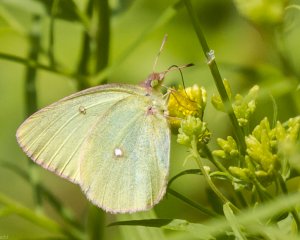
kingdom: Animalia
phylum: Arthropoda
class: Insecta
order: Lepidoptera
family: Pieridae
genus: Colias
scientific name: Colias interior
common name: Pink-edged Sulphur
